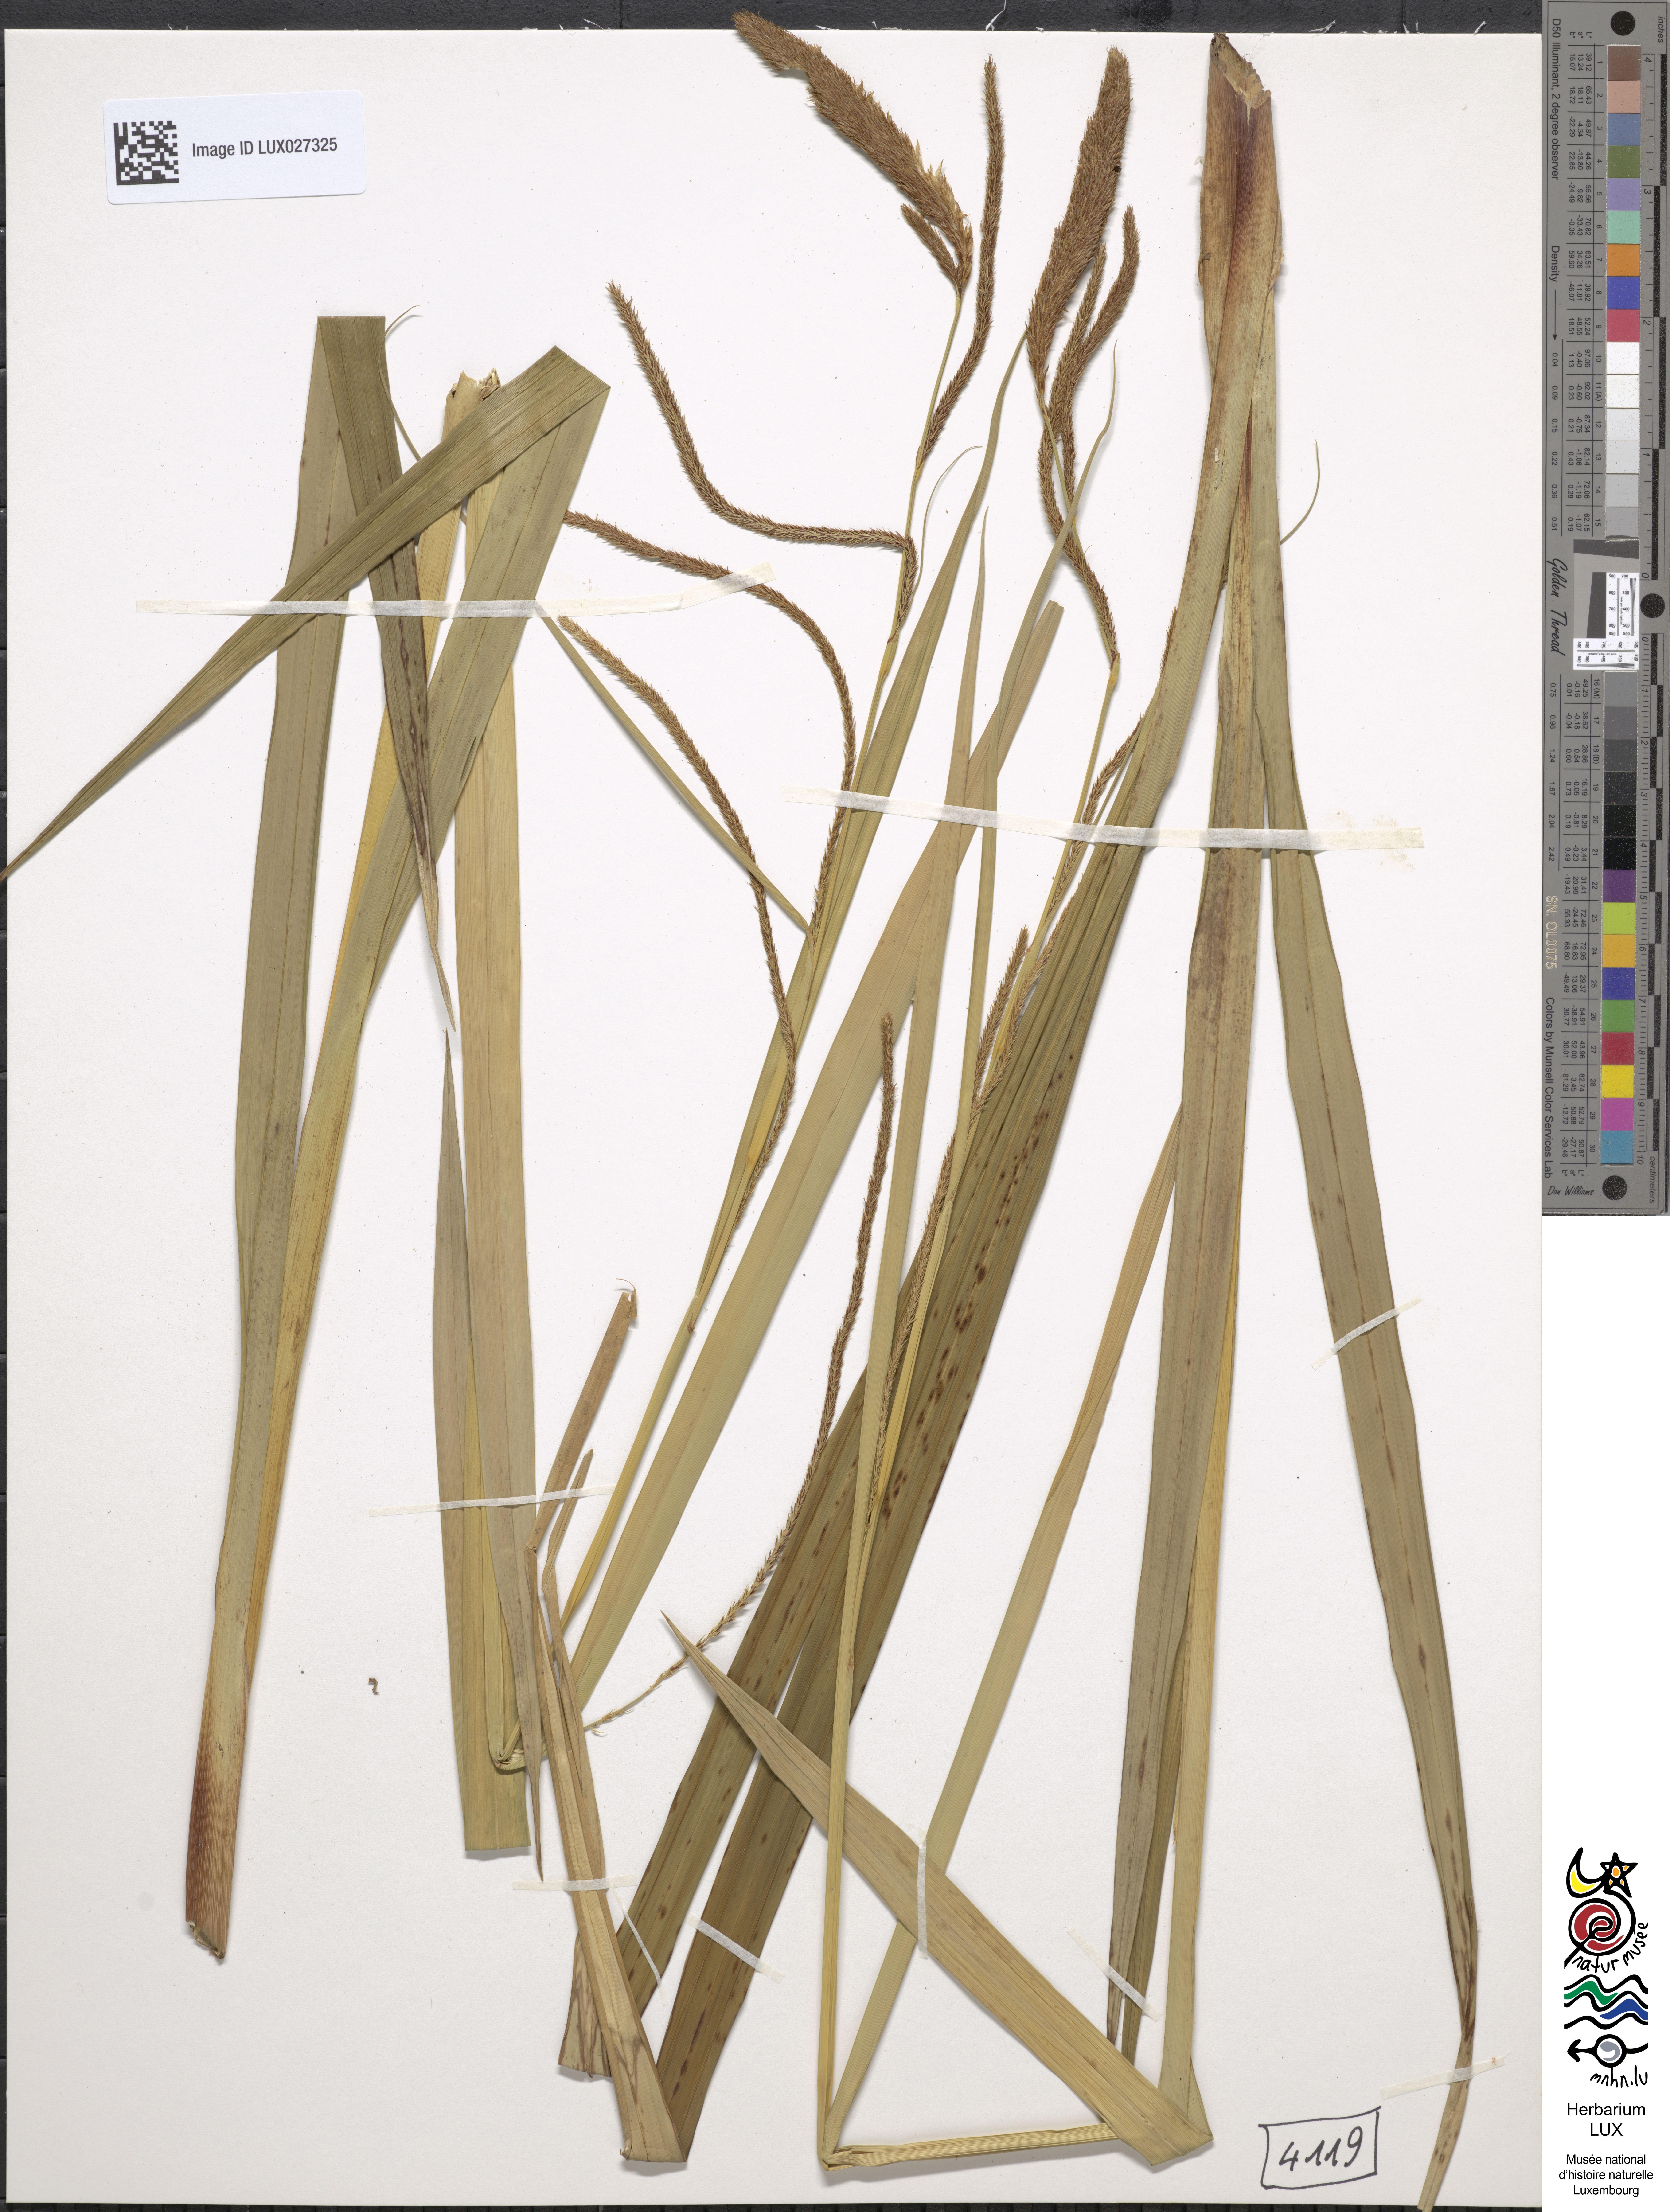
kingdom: Plantae
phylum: Tracheophyta
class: Liliopsida
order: Poales
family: Cyperaceae
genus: Carex
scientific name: Carex pendula
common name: Pendulous sedge
